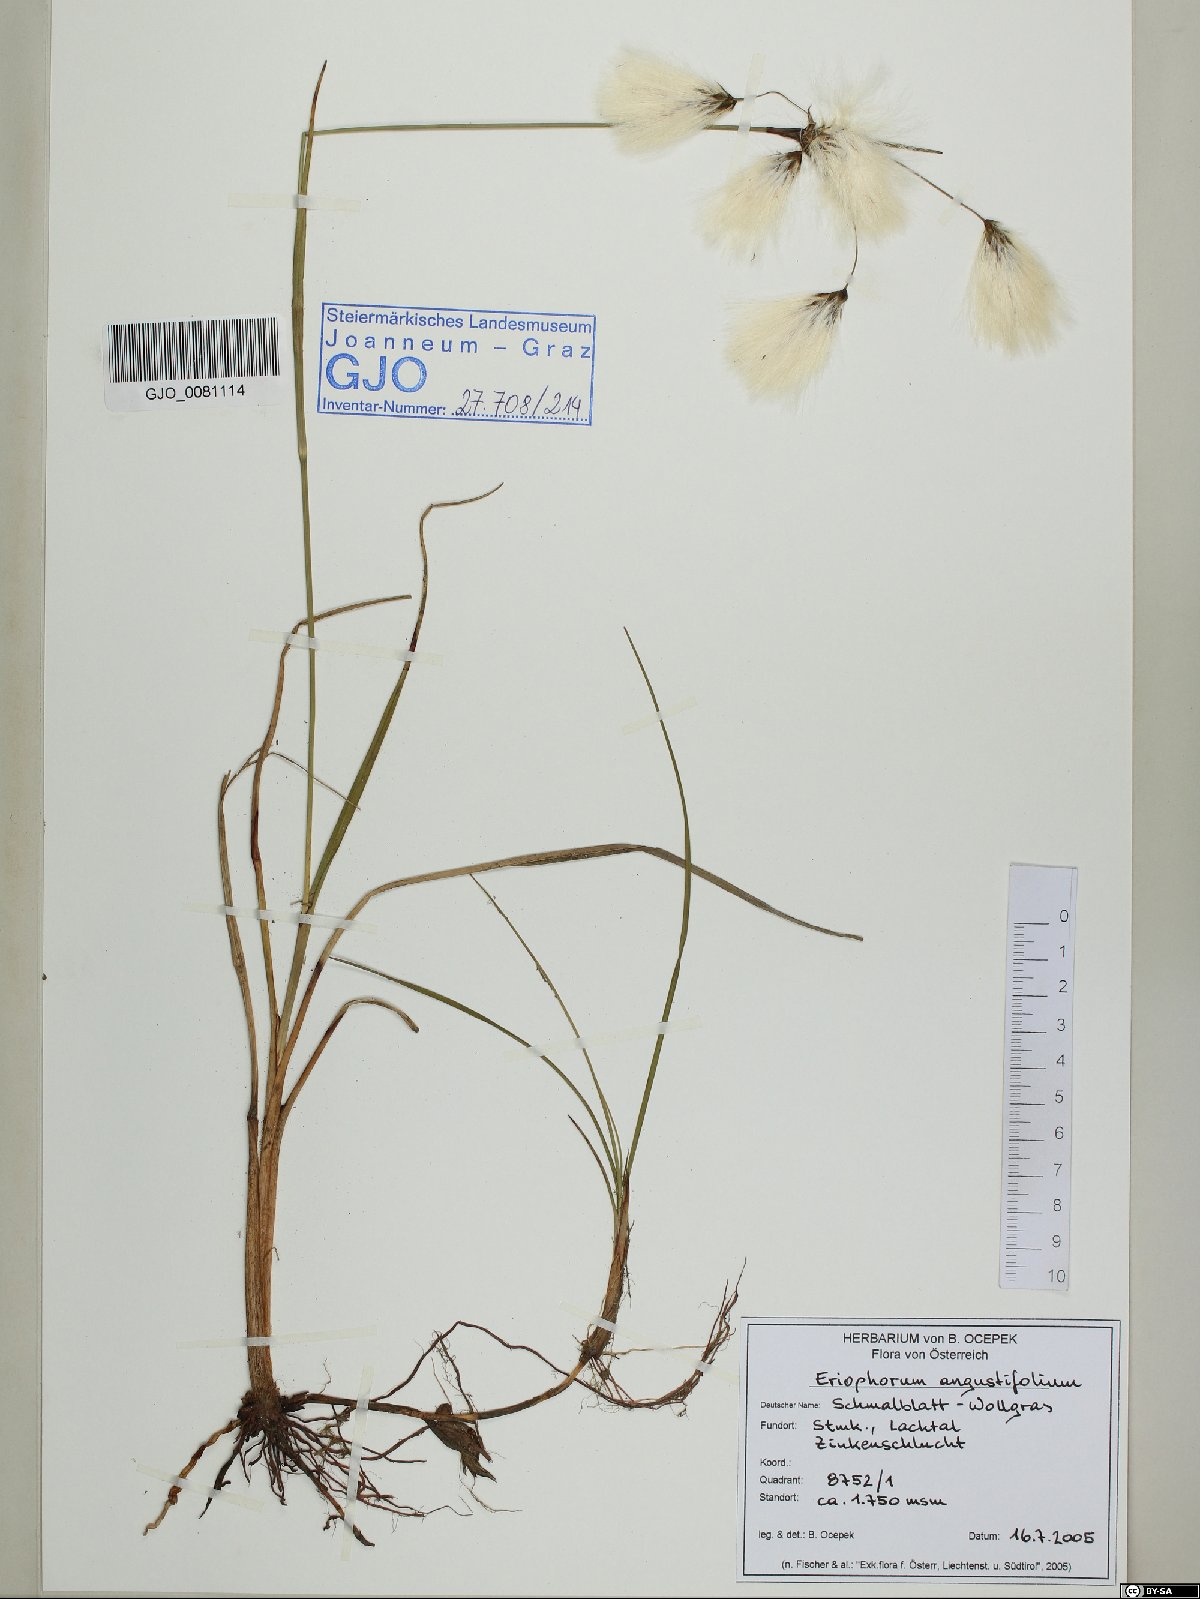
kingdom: Plantae
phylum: Tracheophyta
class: Liliopsida
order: Poales
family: Cyperaceae
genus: Eriophorum
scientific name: Eriophorum angustifolium
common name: Common cottongrass
